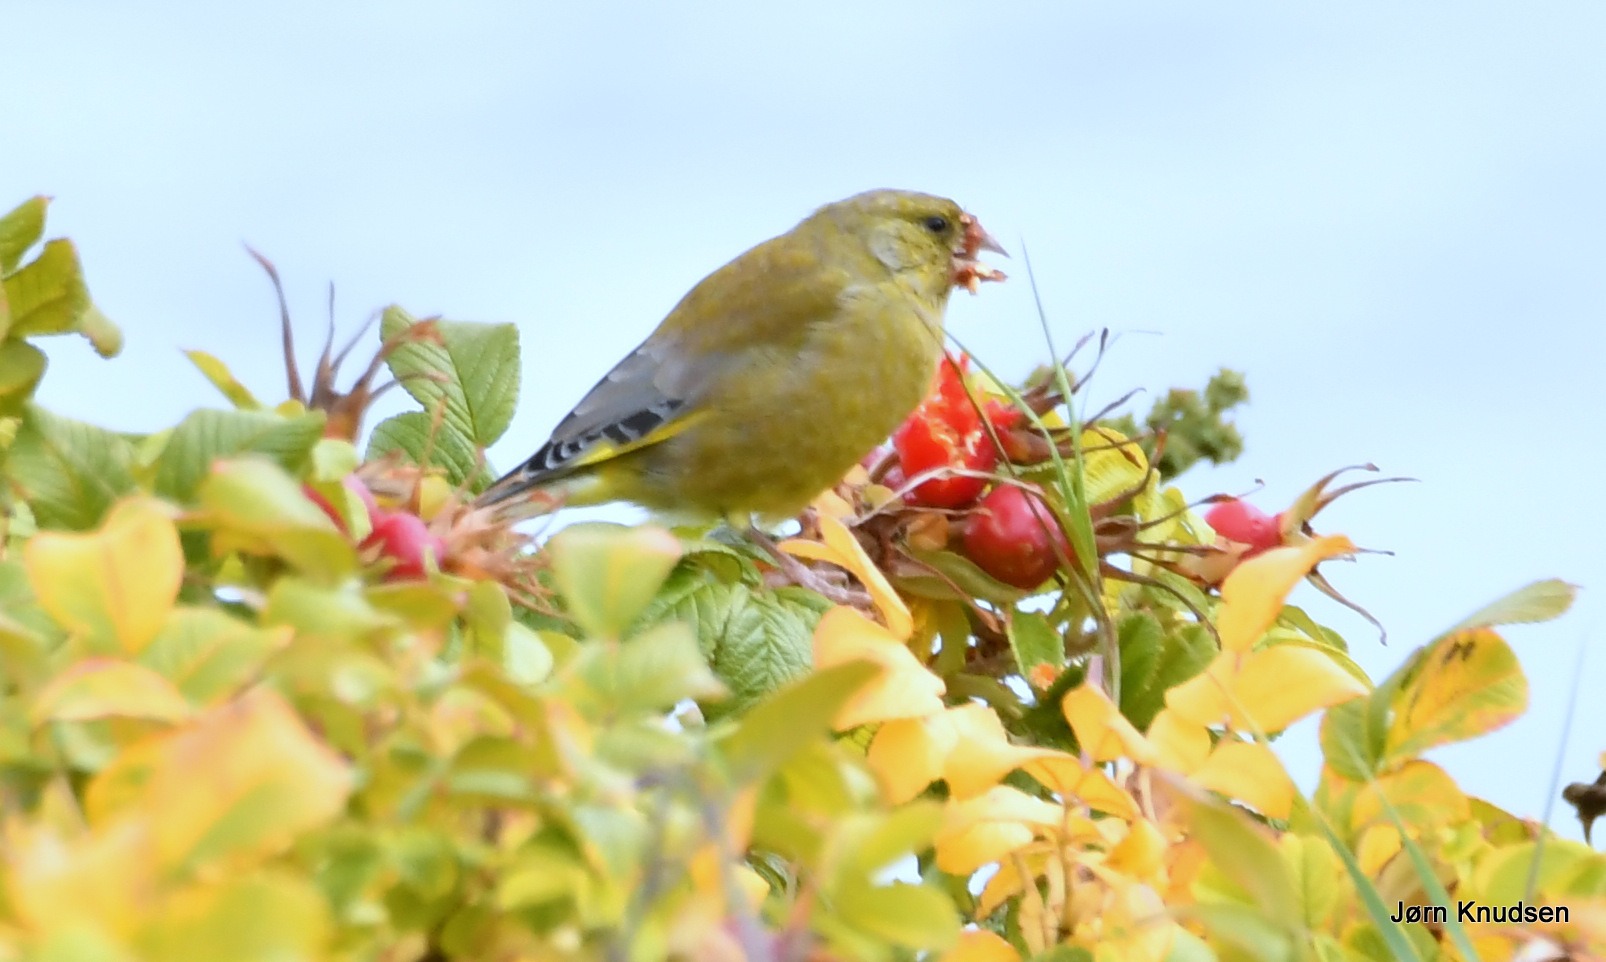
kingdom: Plantae
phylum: Tracheophyta
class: Liliopsida
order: Poales
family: Poaceae
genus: Chloris
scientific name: Chloris chloris
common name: Grønirisk
